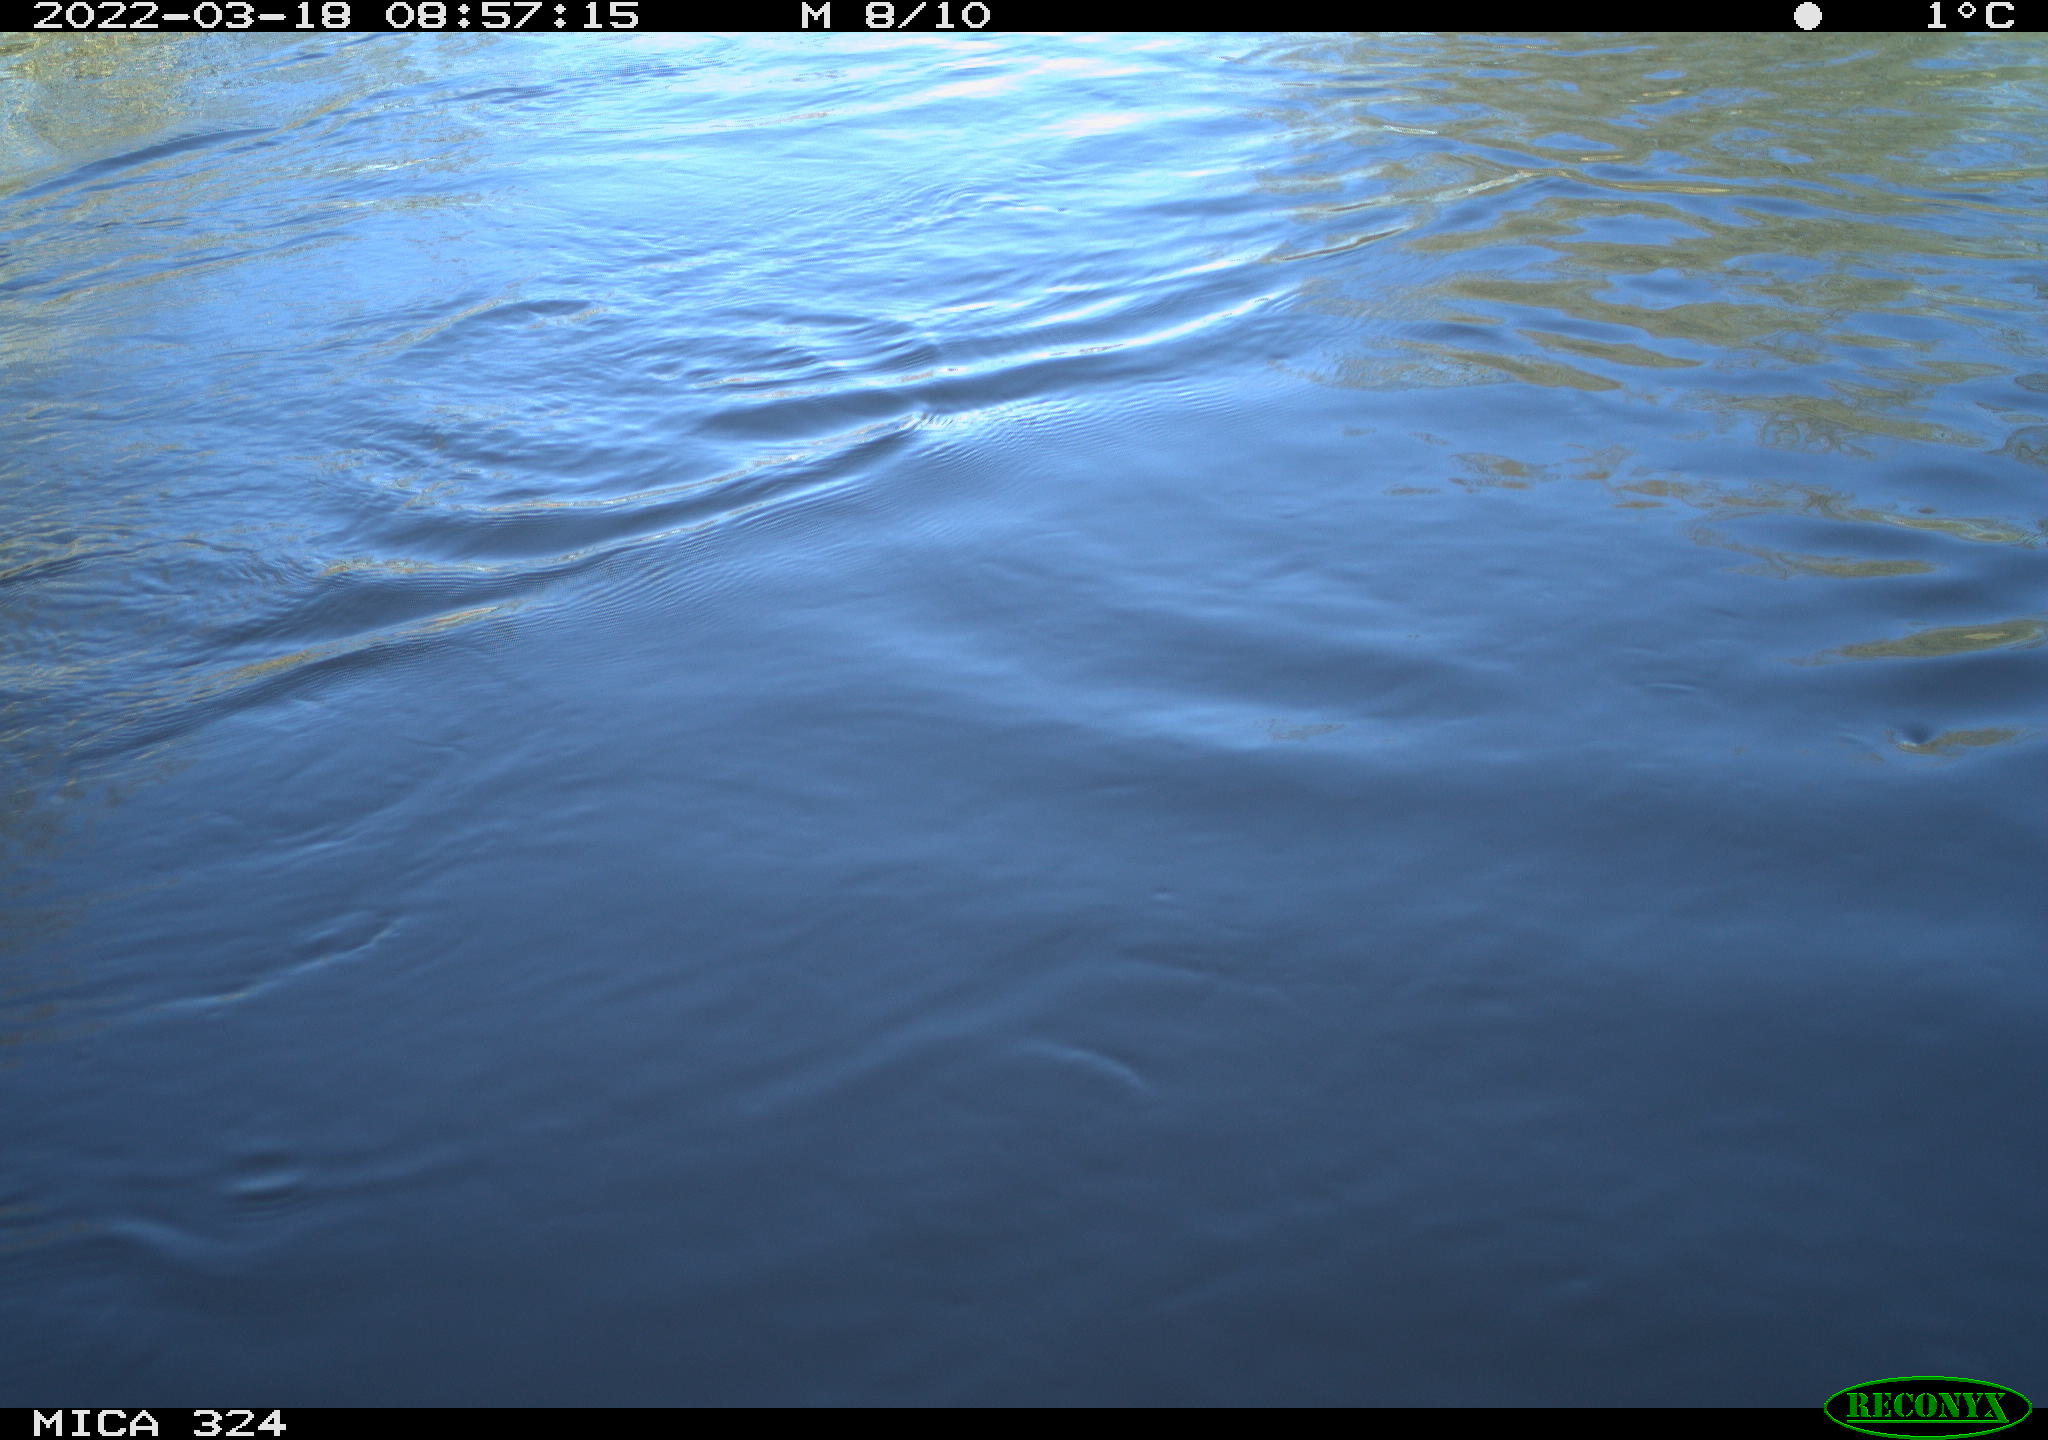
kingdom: Animalia
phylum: Chordata
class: Aves
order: Gruiformes
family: Rallidae
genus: Gallinula
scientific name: Gallinula chloropus
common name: Common moorhen
